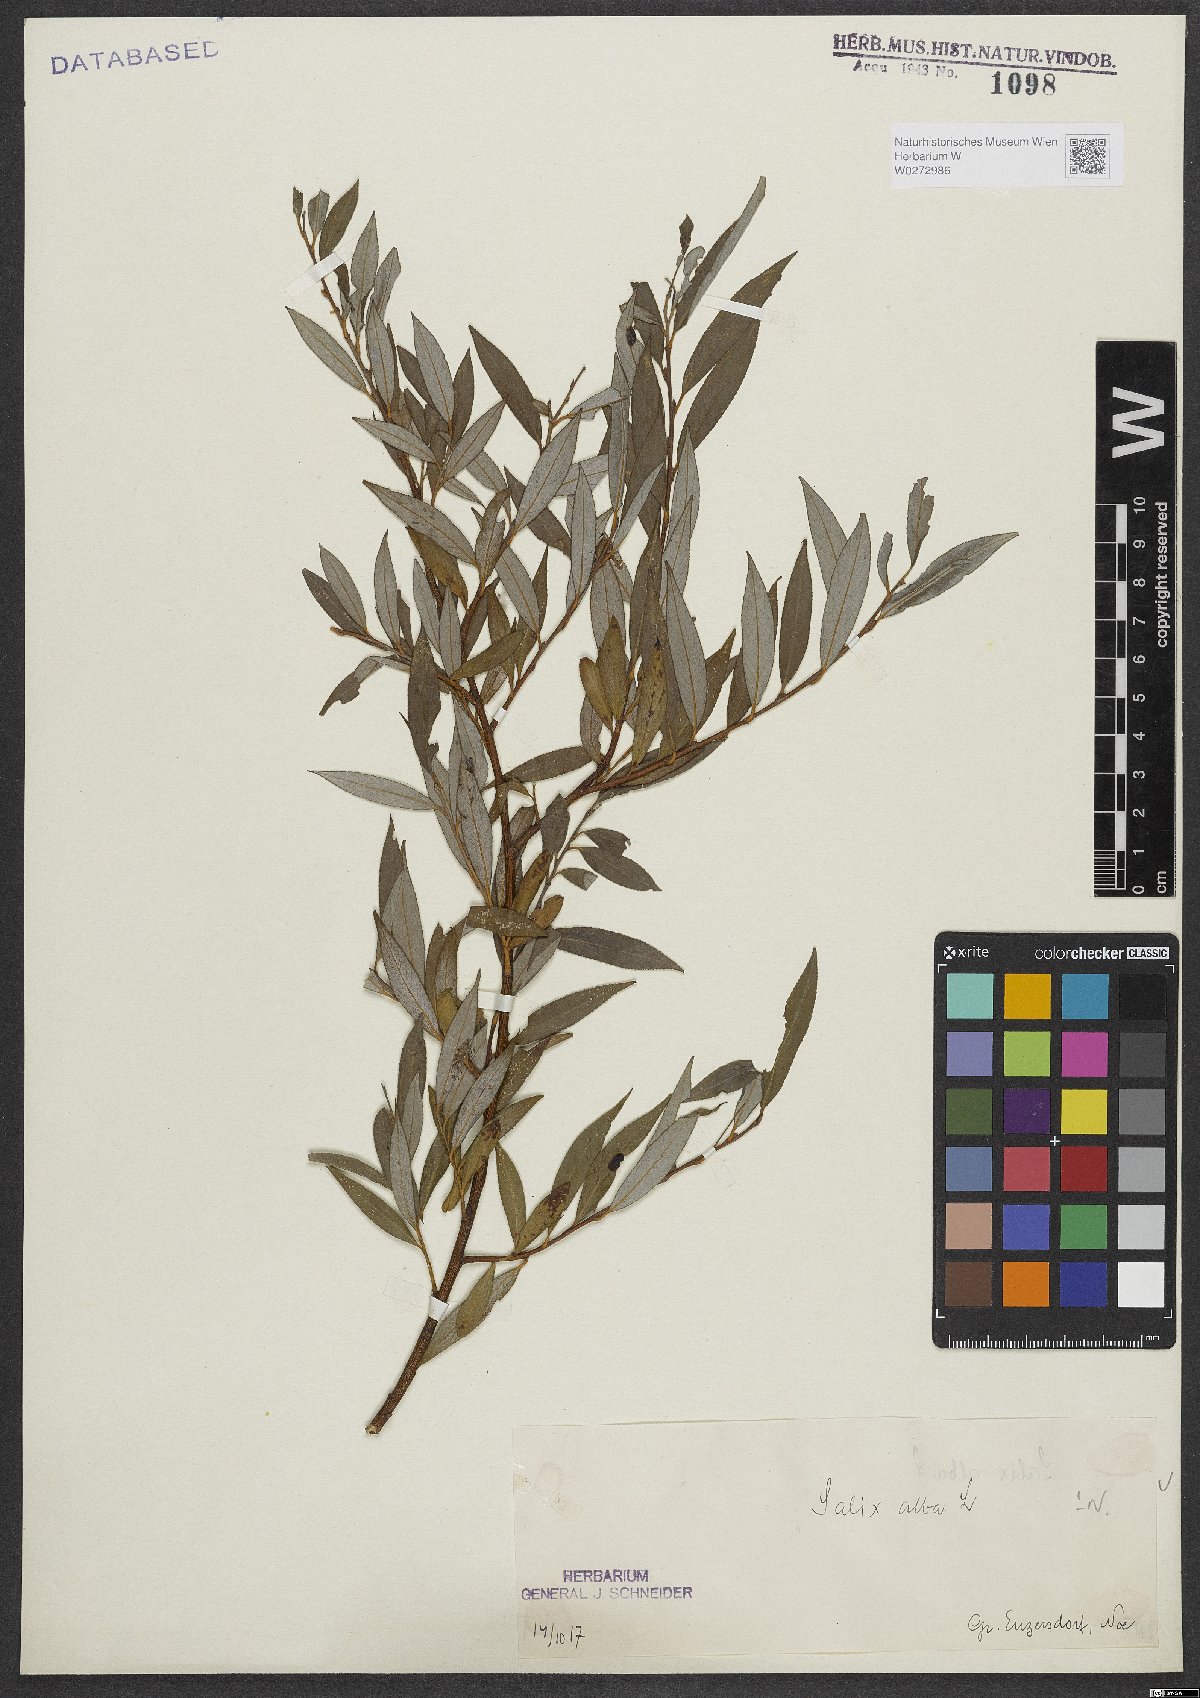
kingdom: Plantae
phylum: Tracheophyta
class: Magnoliopsida
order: Malpighiales
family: Salicaceae
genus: Salix
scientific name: Salix alba
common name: White willow
